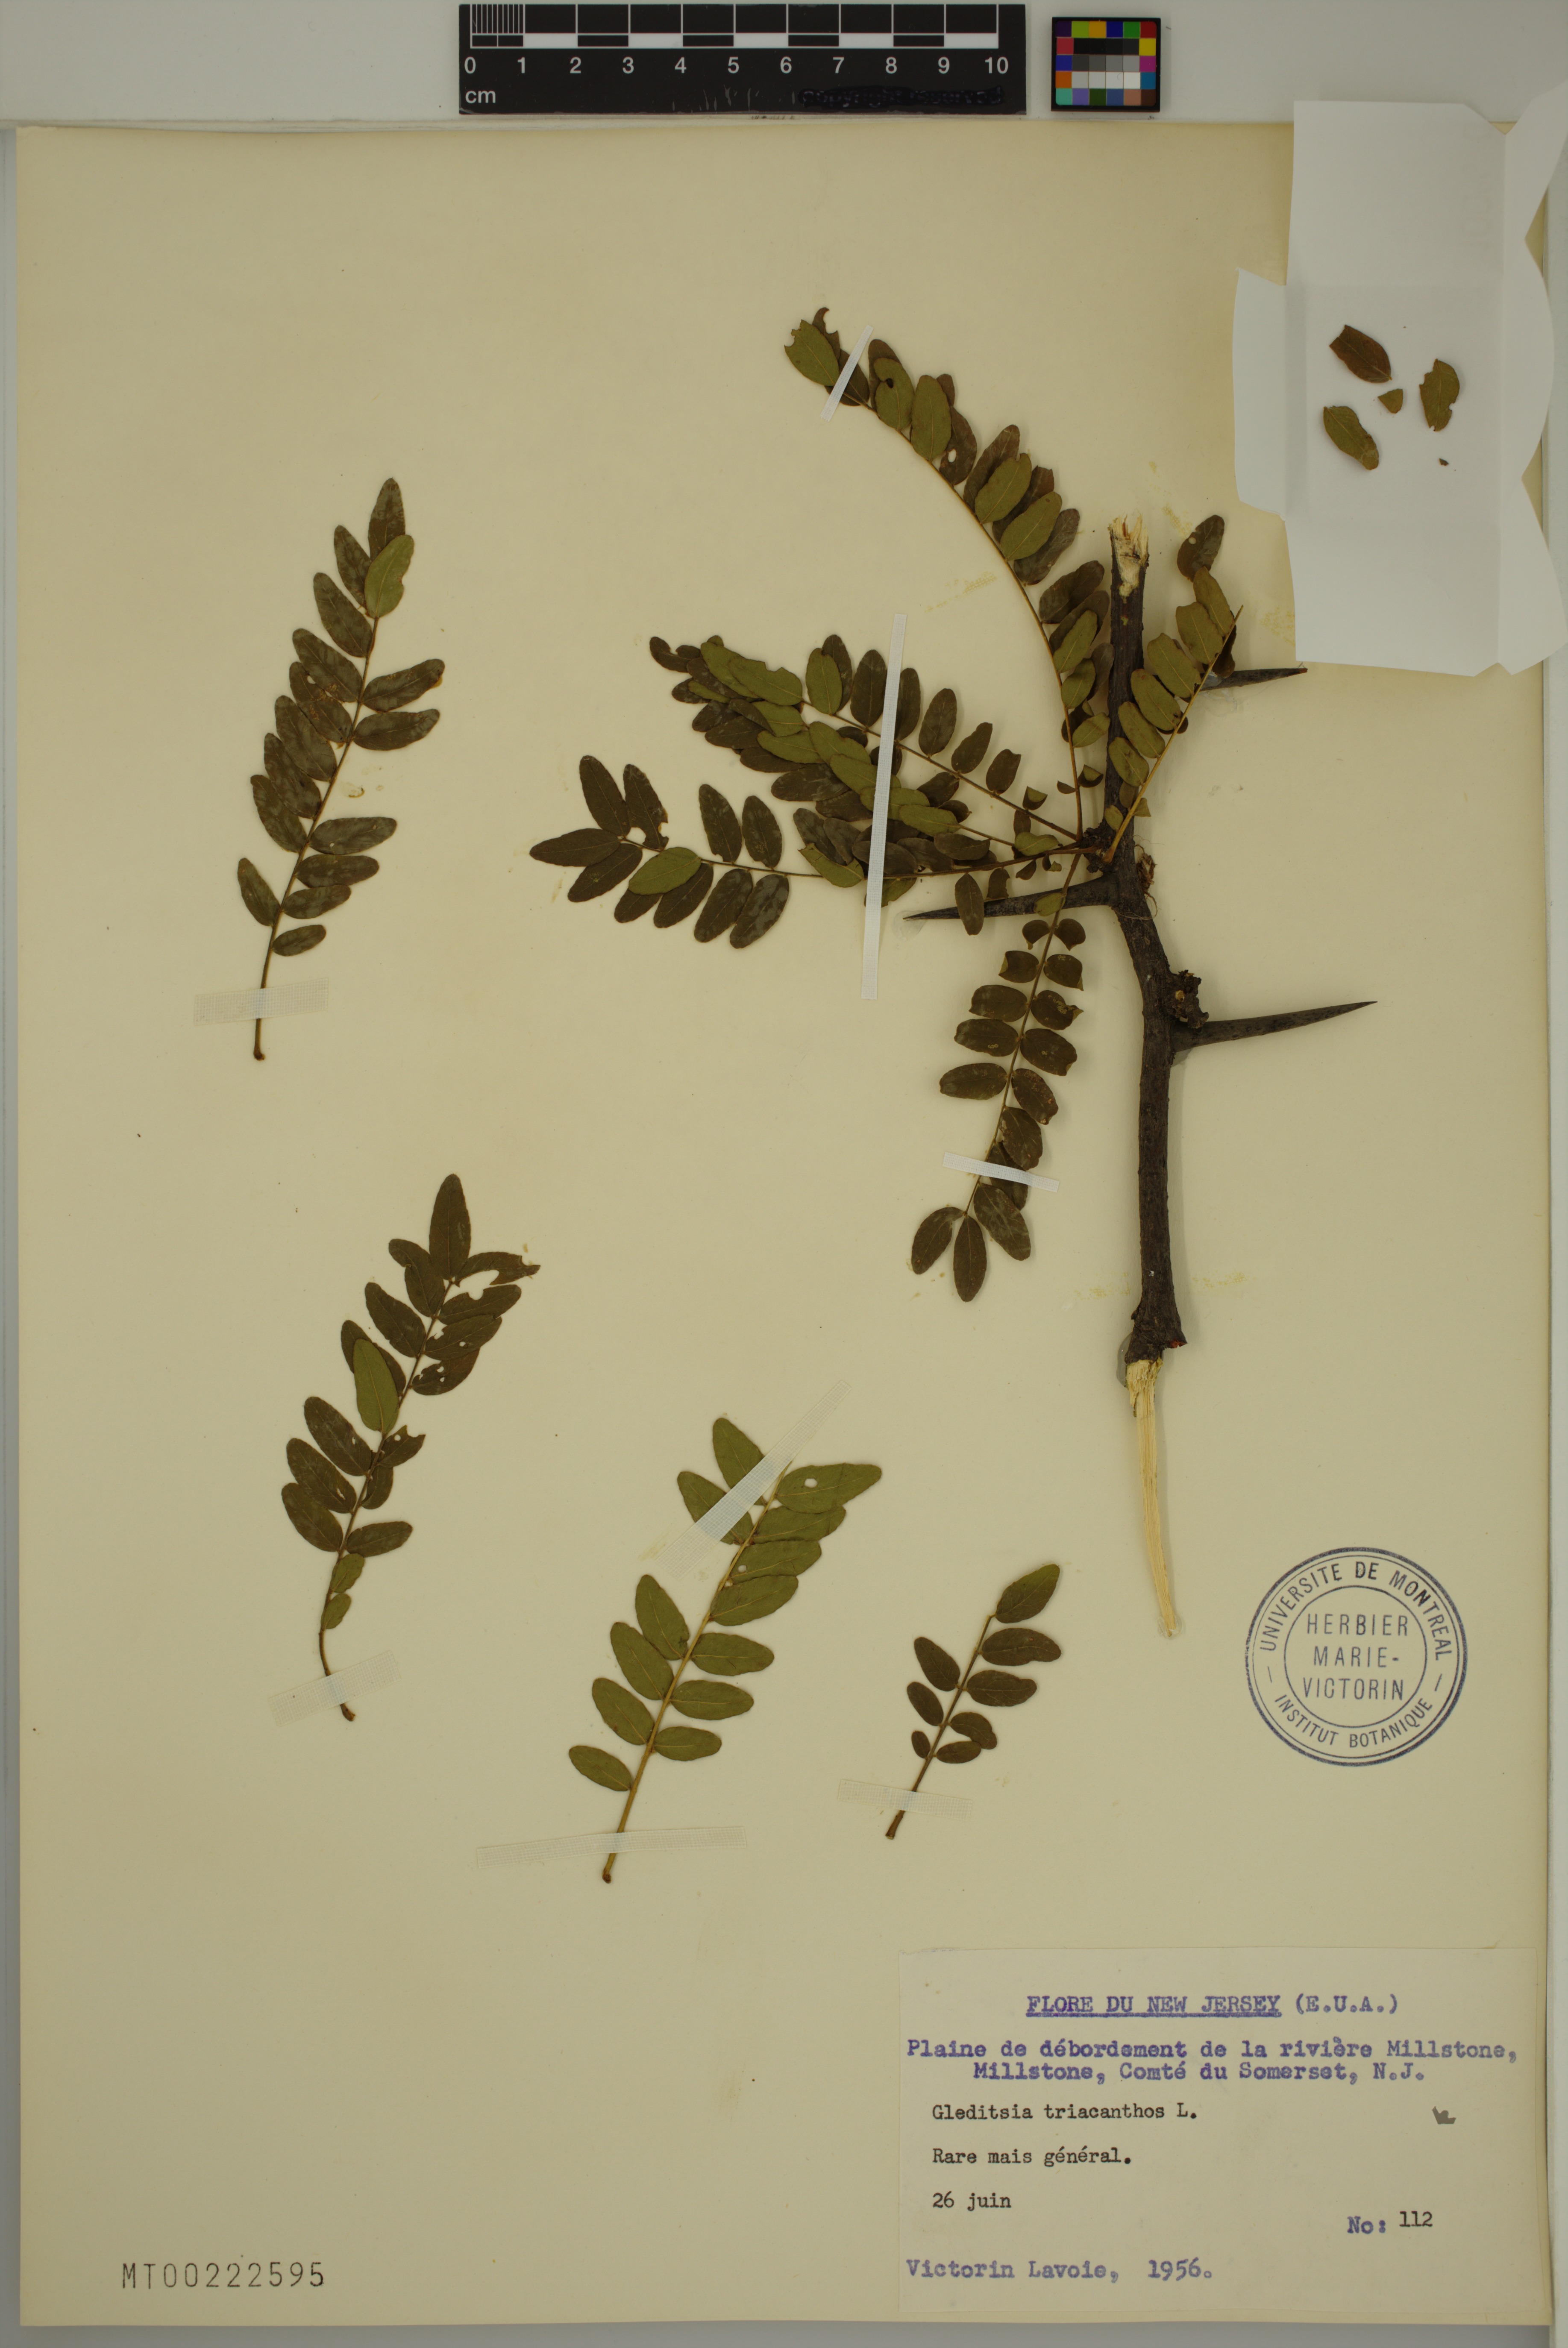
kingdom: Plantae
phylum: Tracheophyta
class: Magnoliopsida
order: Fabales
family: Fabaceae
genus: Gleditsia
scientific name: Gleditsia triacanthos
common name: Common honeylocust
